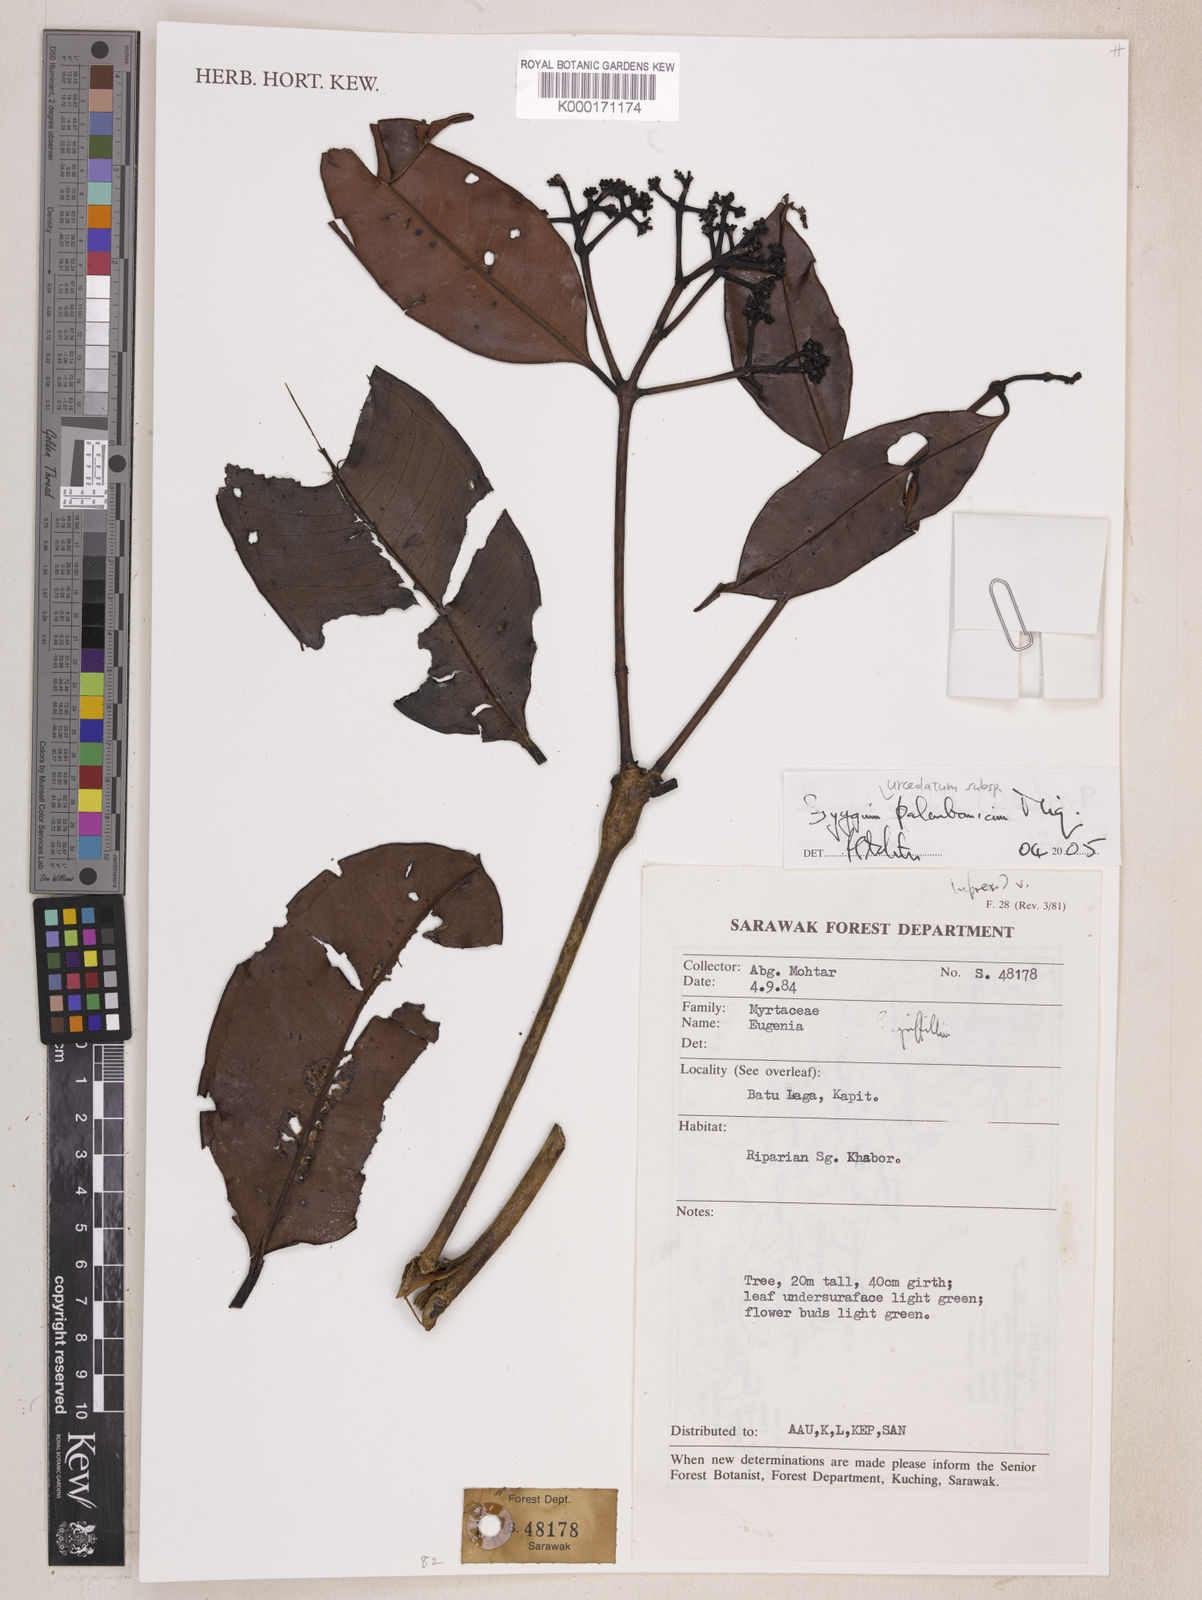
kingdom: Plantae
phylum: Tracheophyta
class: Magnoliopsida
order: Myrtales
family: Myrtaceae
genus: Syzygium
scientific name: Syzygium griffithii
